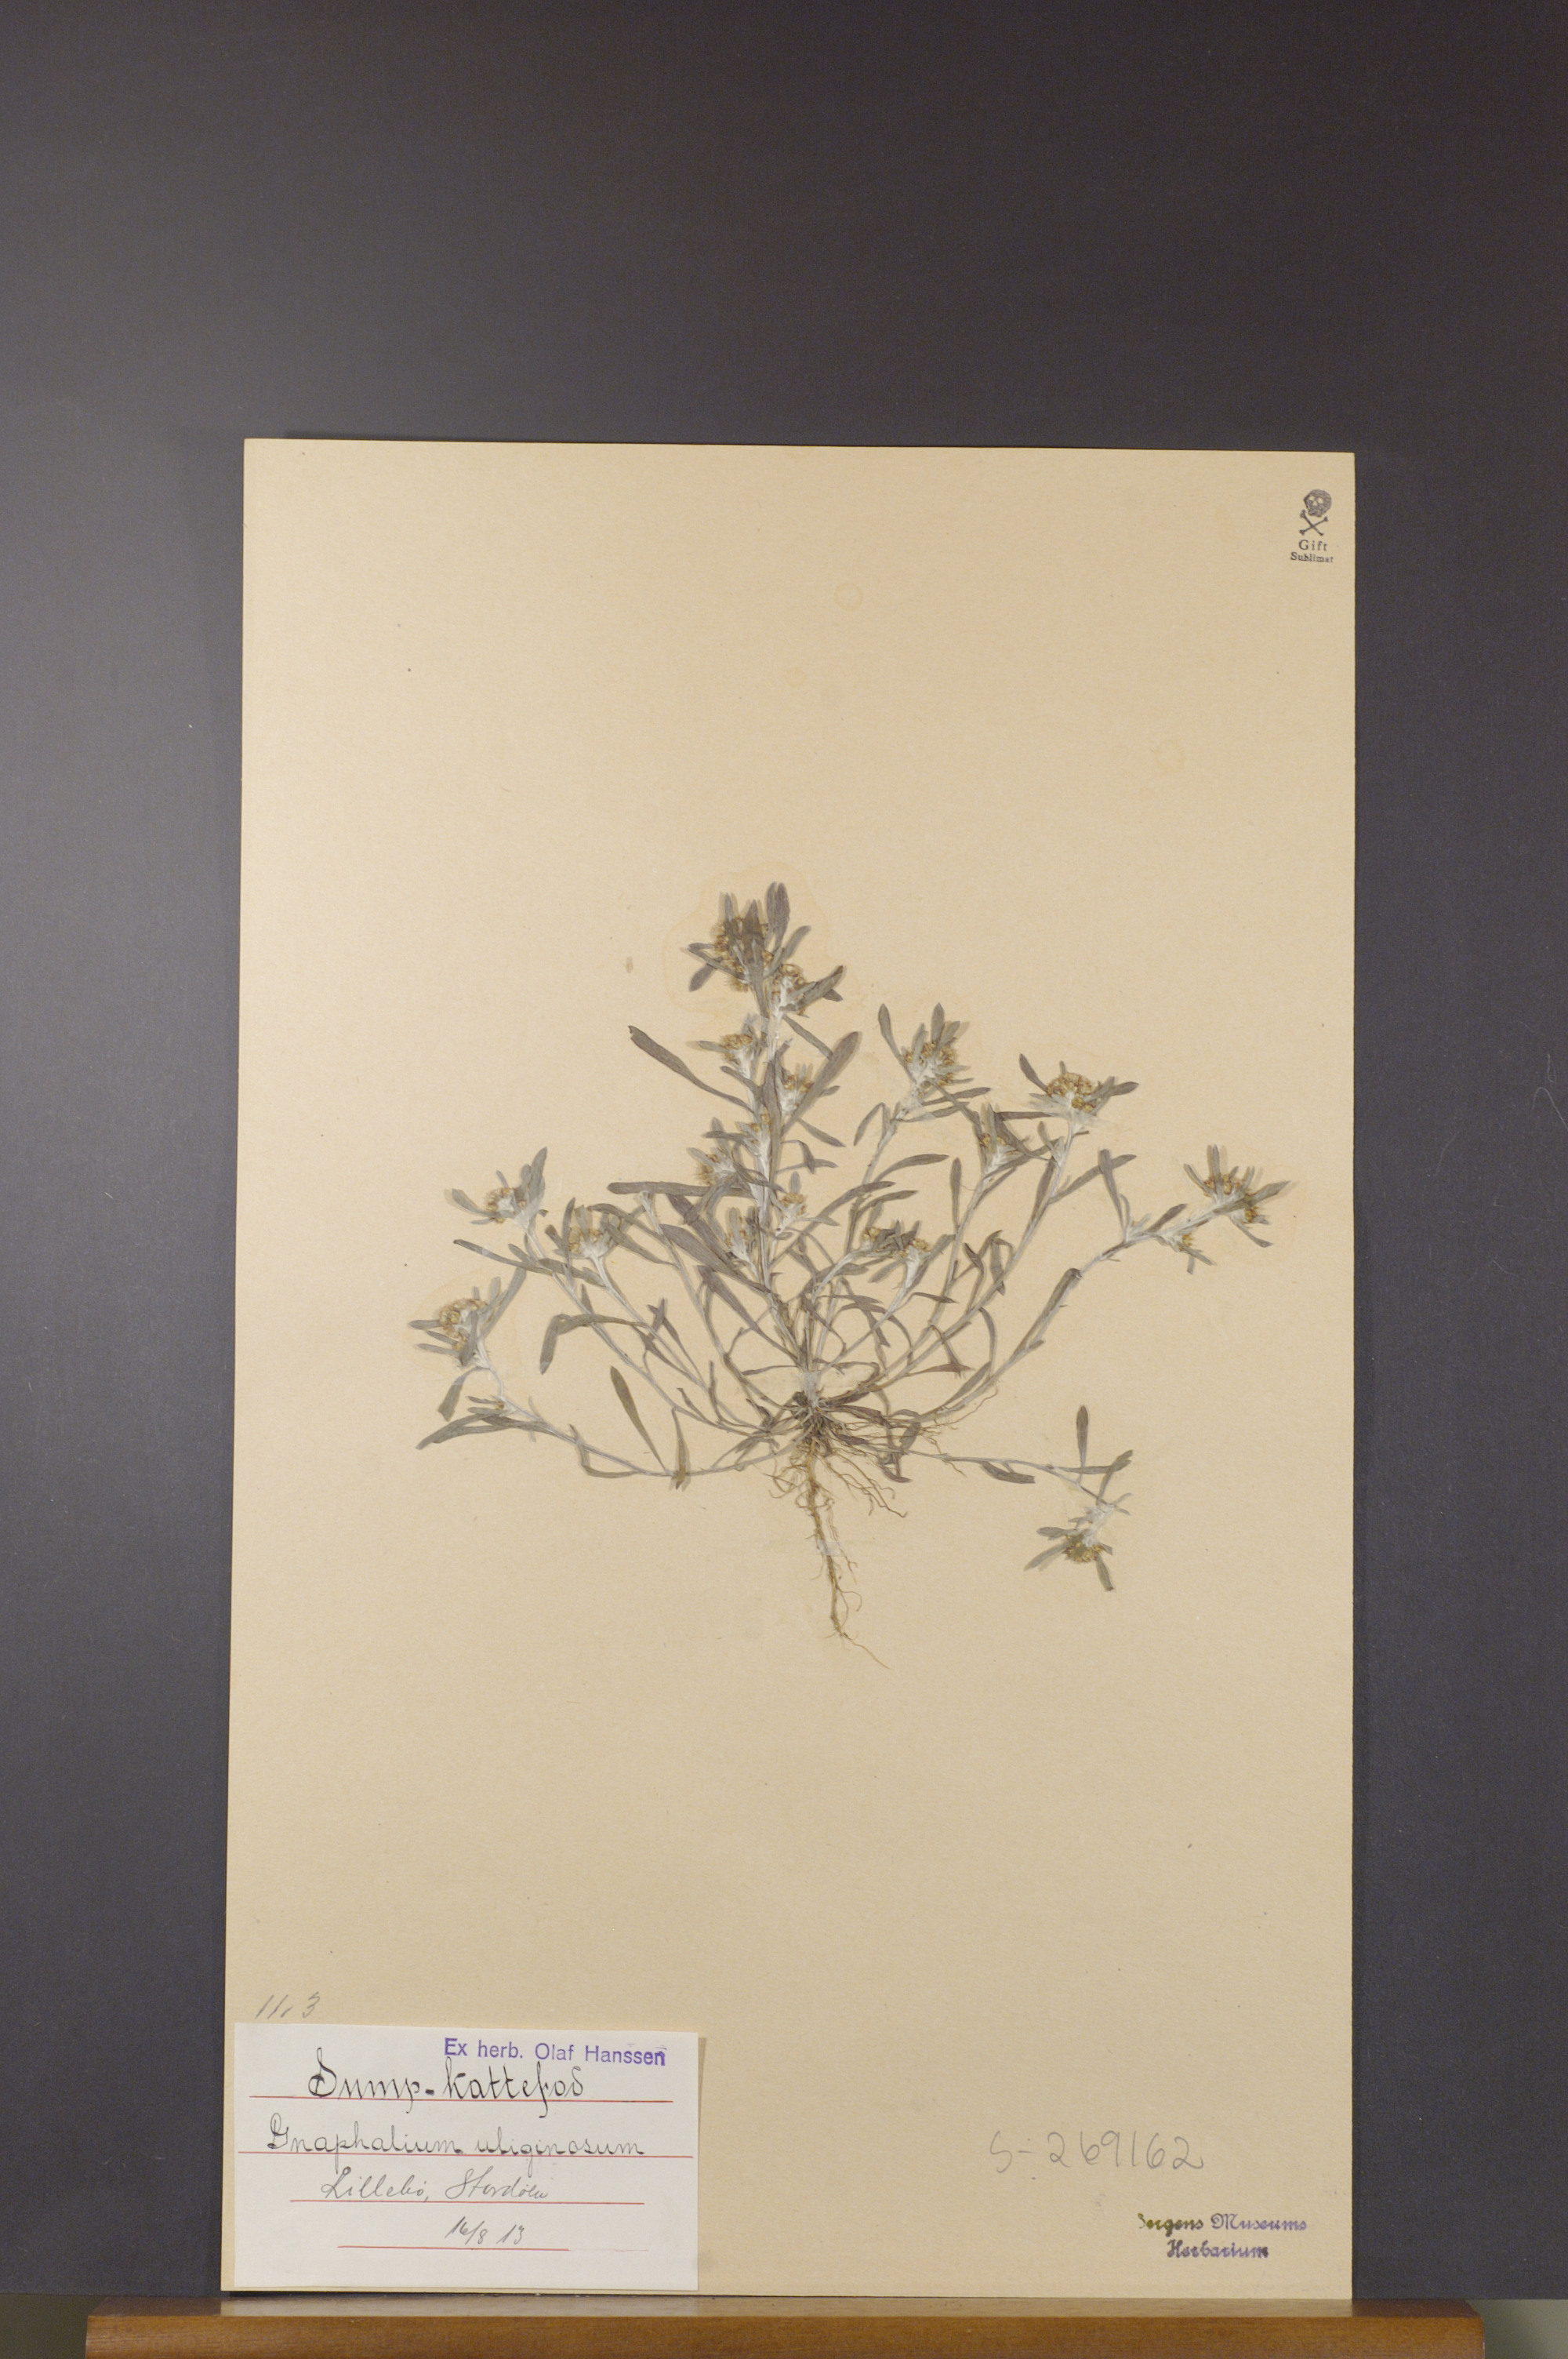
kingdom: Plantae
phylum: Tracheophyta
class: Magnoliopsida
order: Asterales
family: Asteraceae
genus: Gnaphalium
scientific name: Gnaphalium uliginosum
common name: Marsh cudweed
